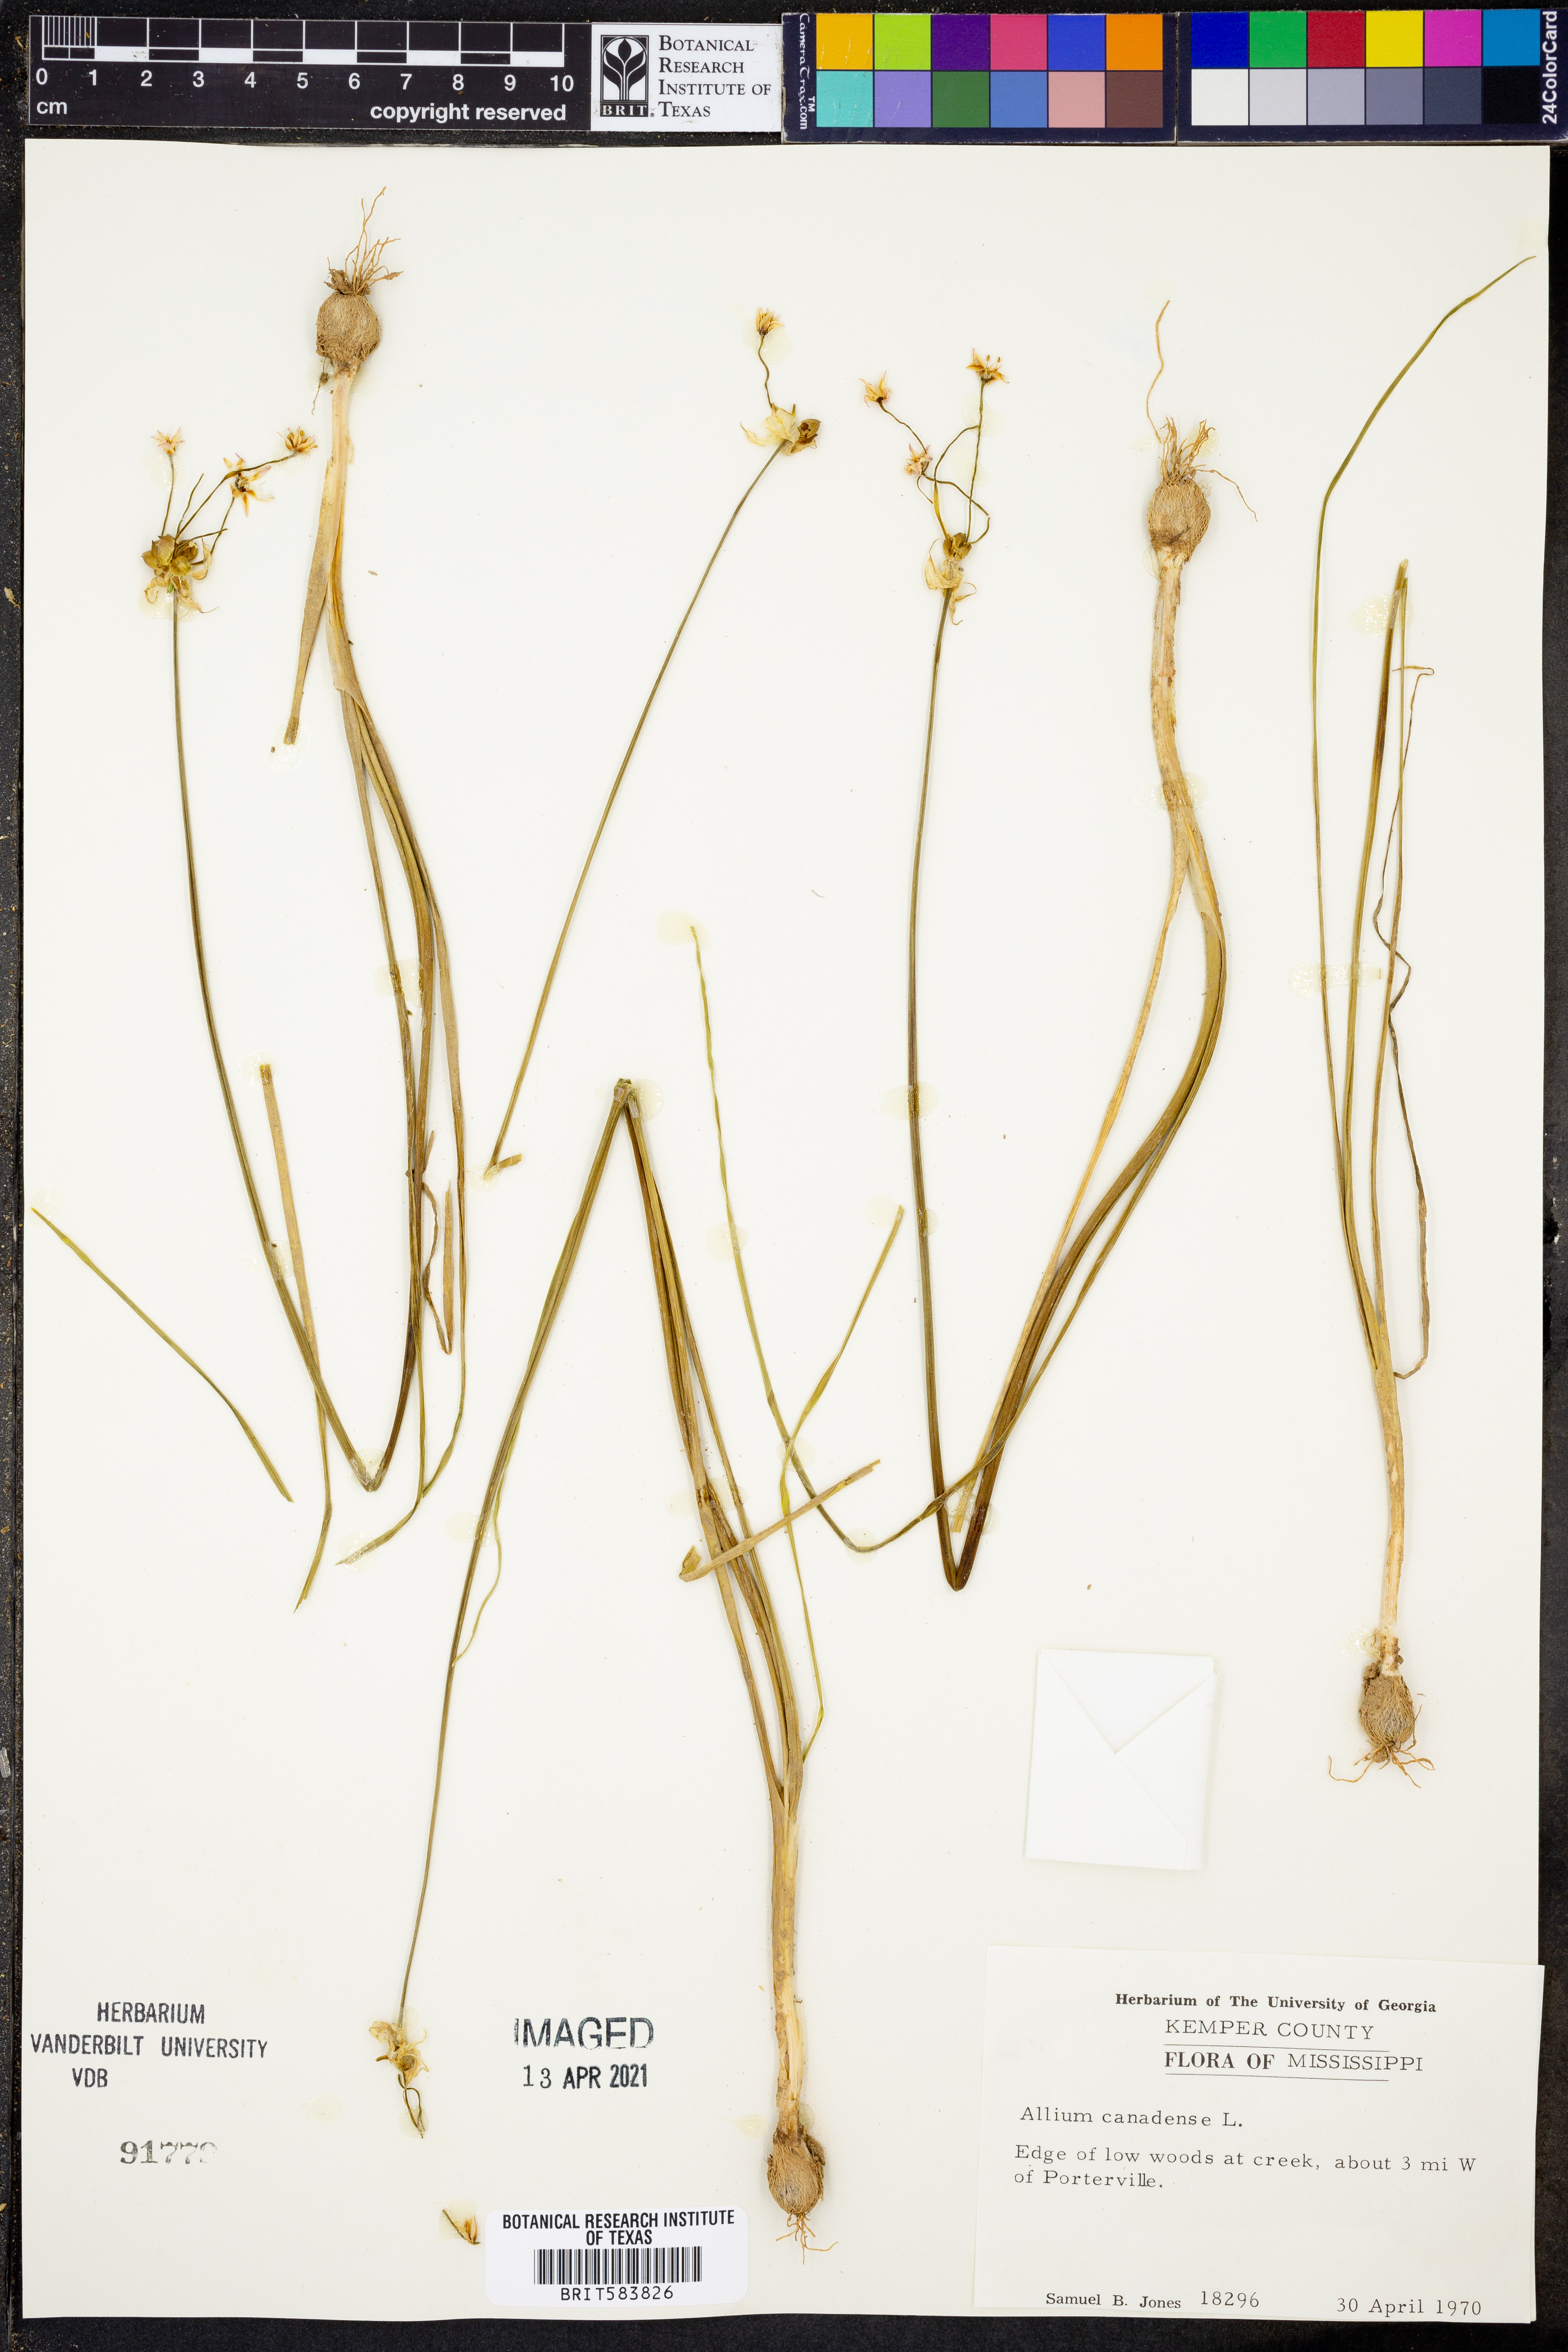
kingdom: Plantae
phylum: Tracheophyta
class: Liliopsida
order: Asparagales
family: Amaryllidaceae
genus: Allium
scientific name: Allium canadense
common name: Meadow garlic
